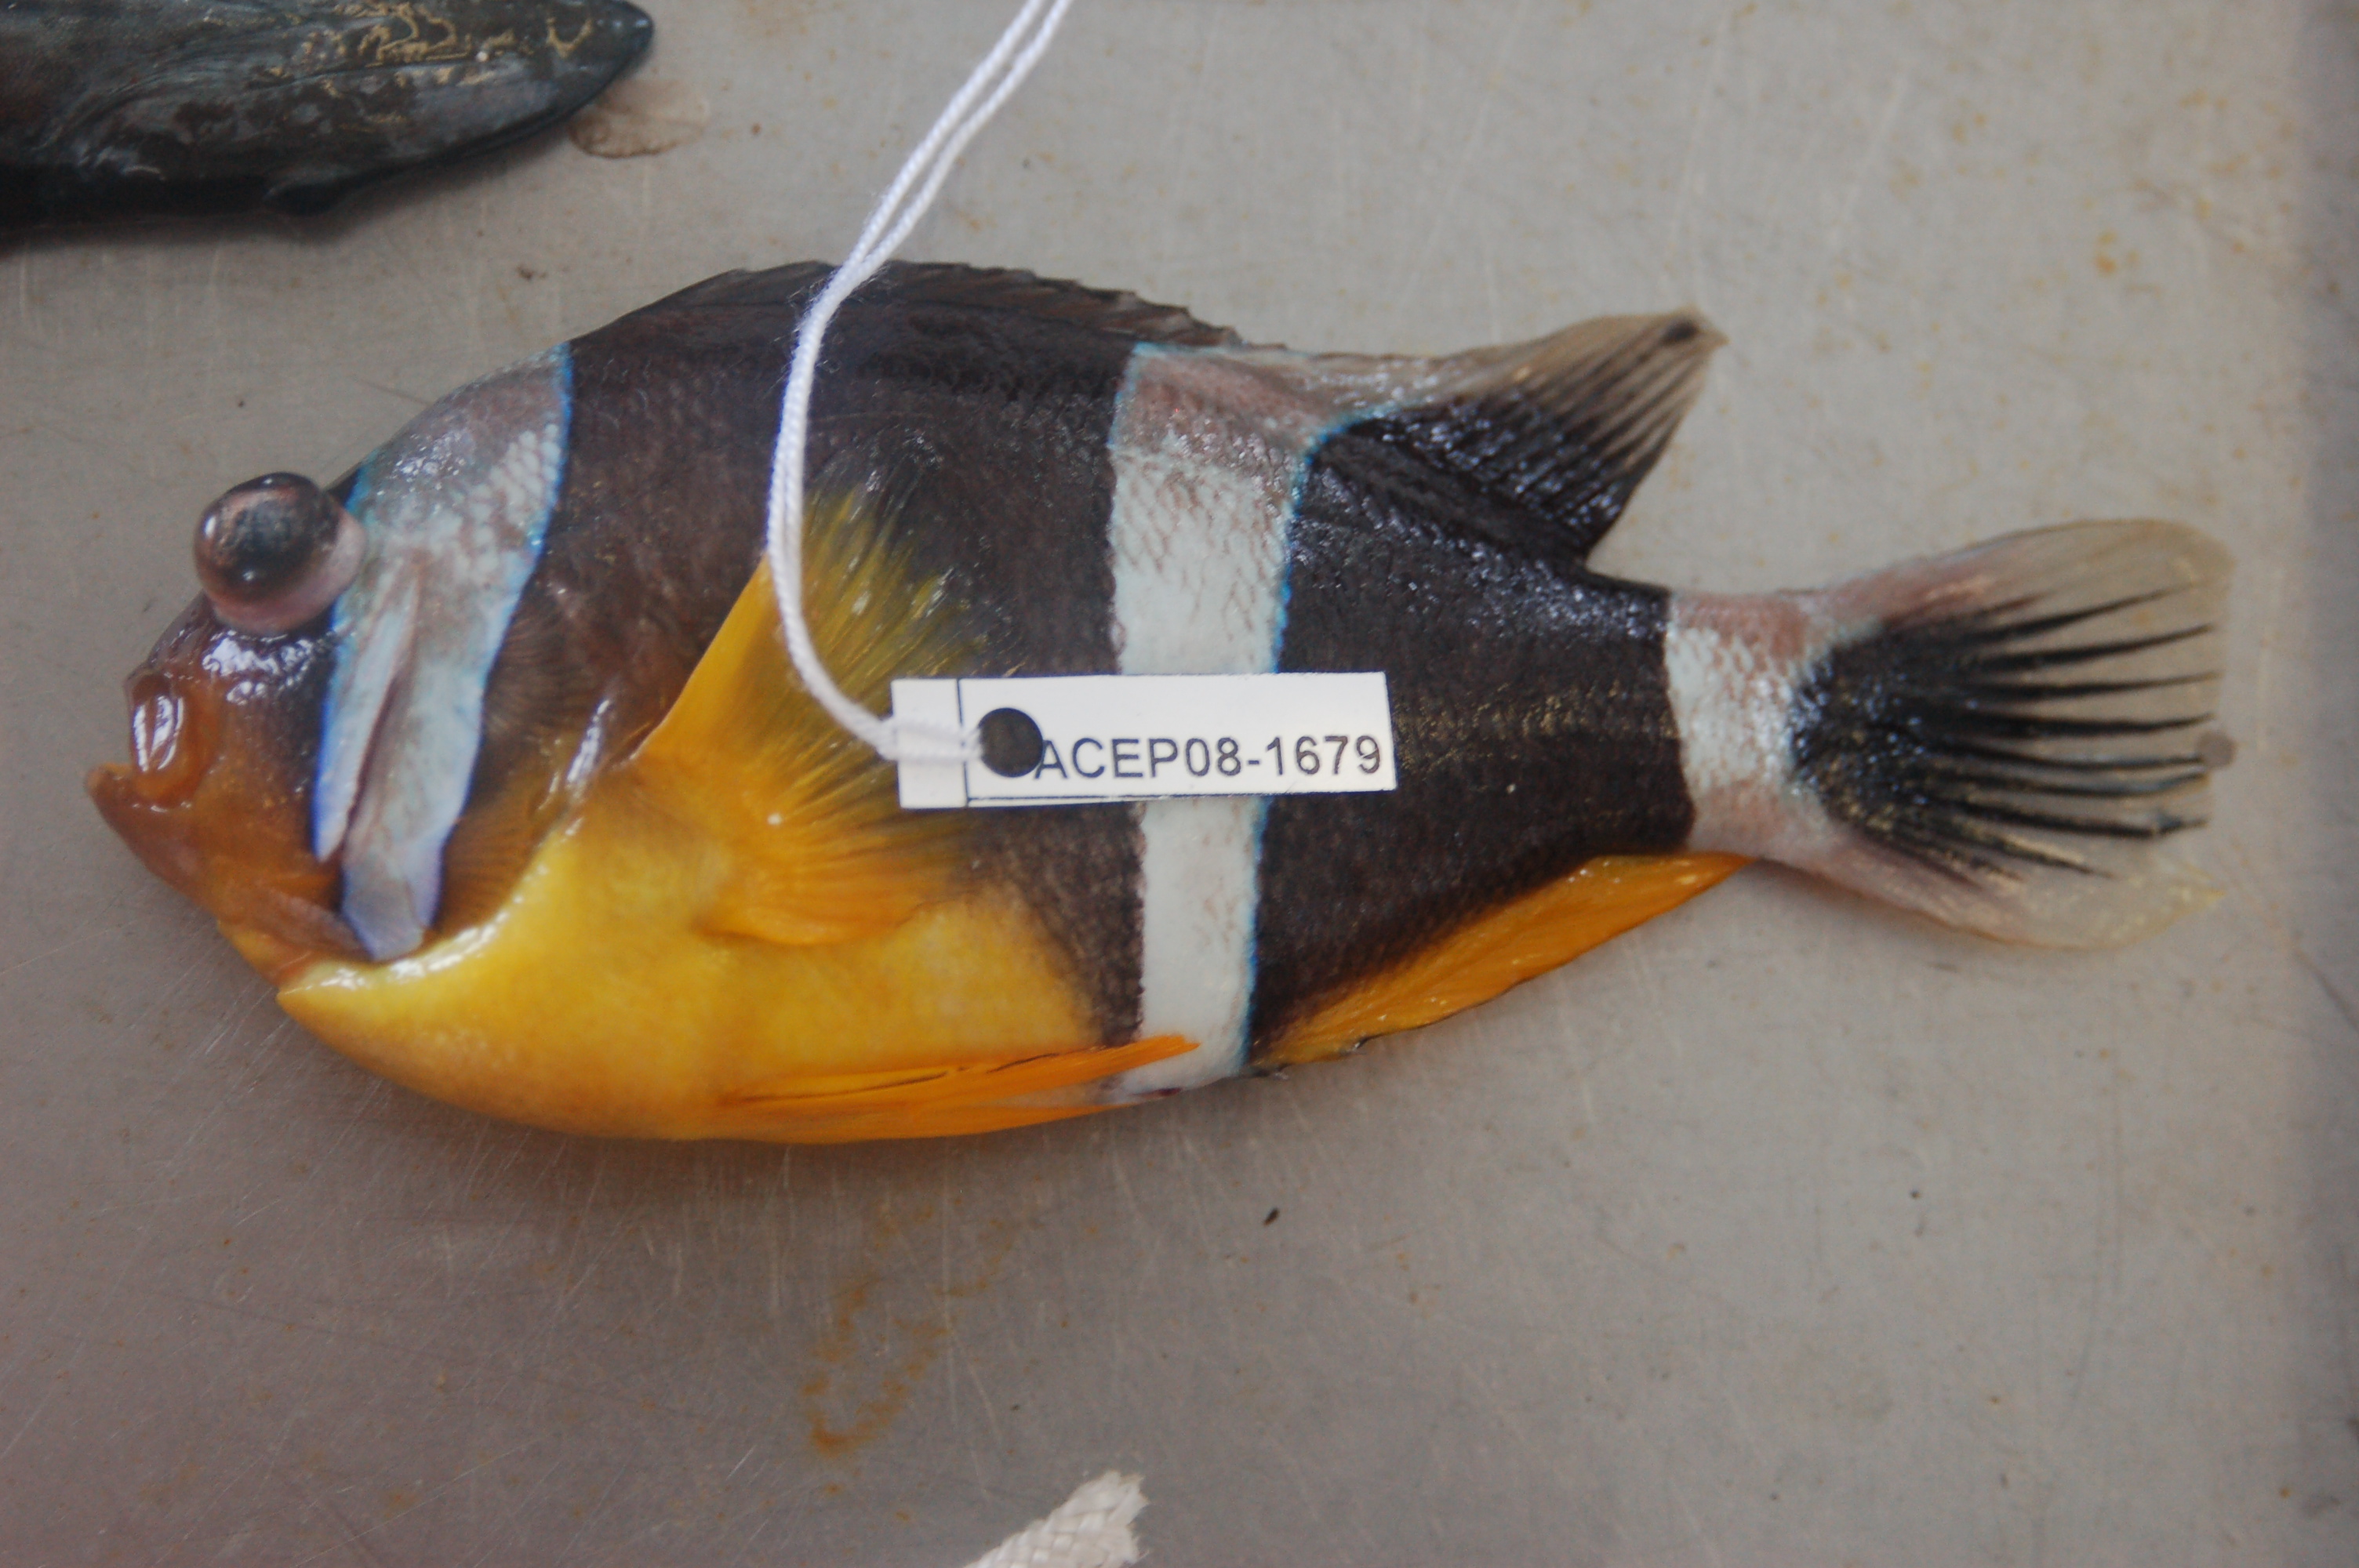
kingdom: Animalia
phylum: Chordata
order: Perciformes
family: Pomacentridae
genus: Amphiprion
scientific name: Amphiprion chrysogaster
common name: Mauritian anemonefish
